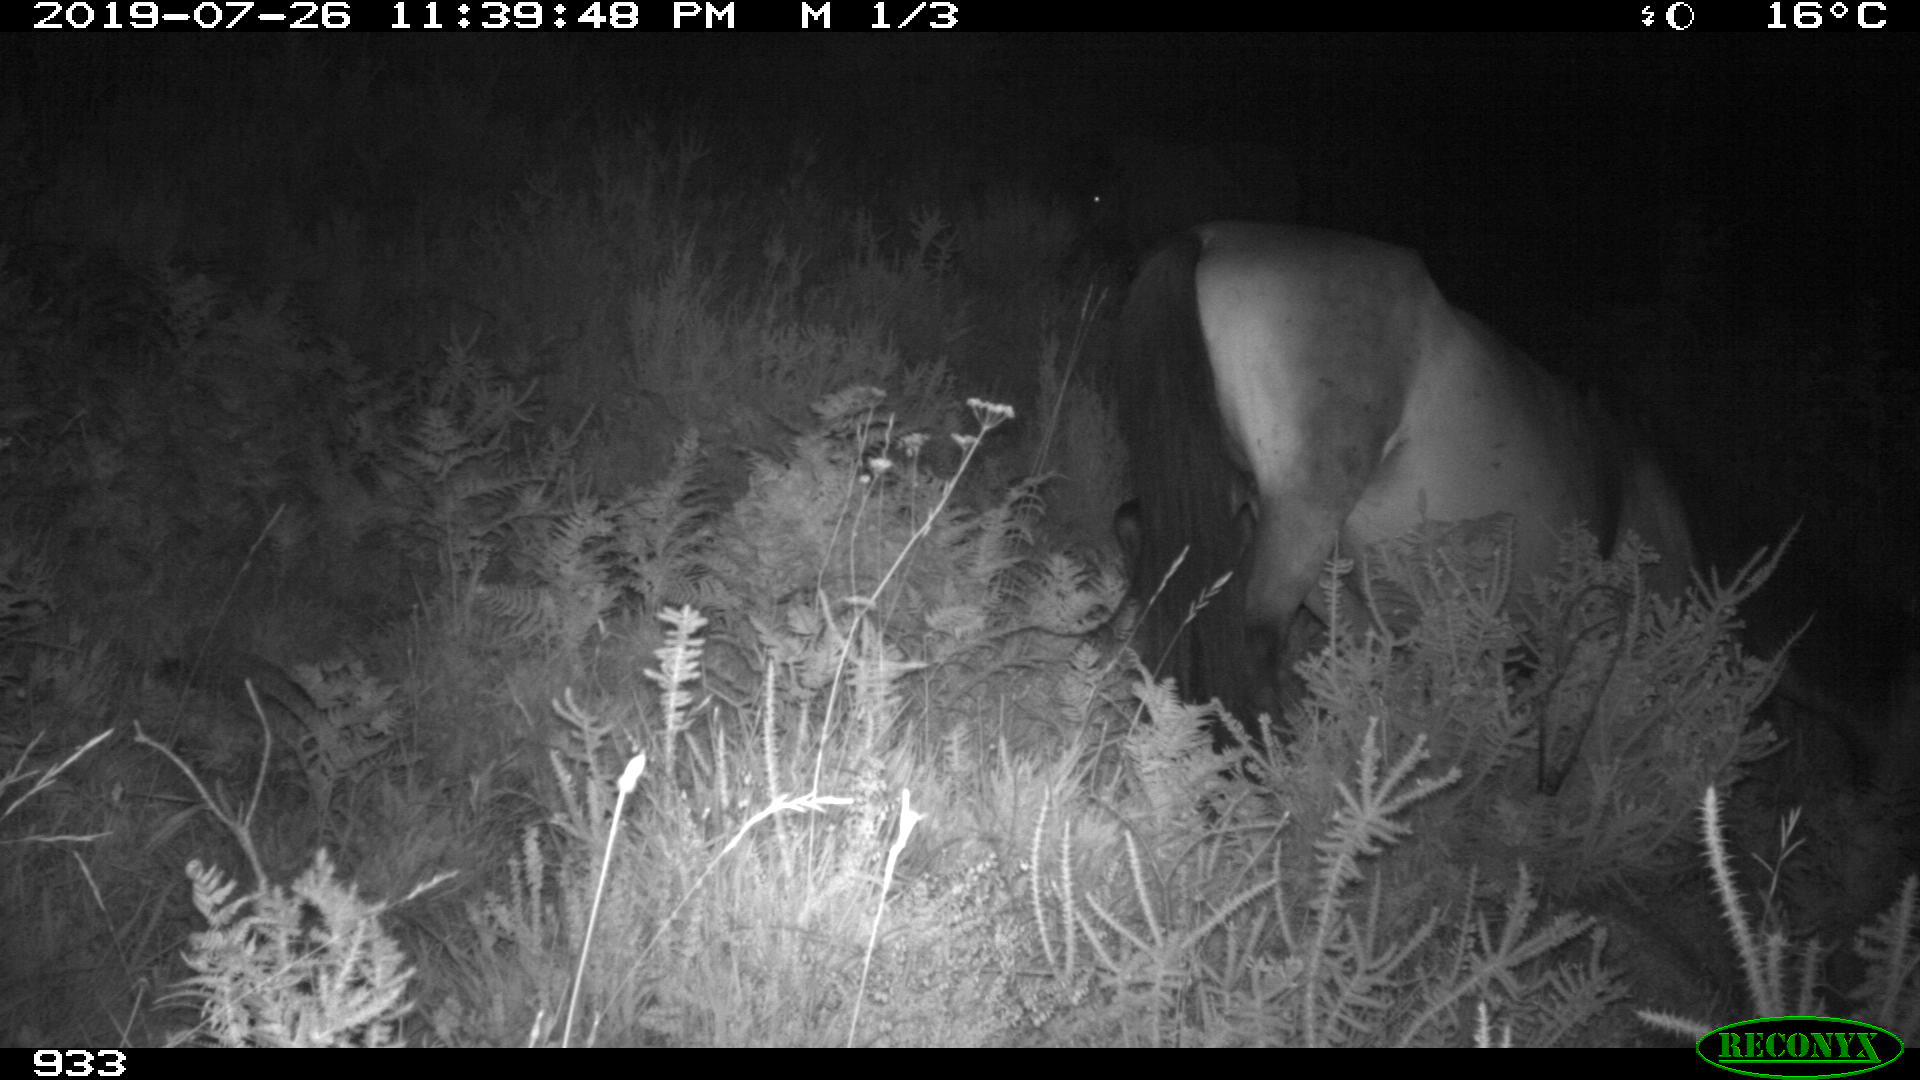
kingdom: Animalia
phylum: Chordata
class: Mammalia
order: Perissodactyla
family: Equidae
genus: Equus
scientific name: Equus caballus
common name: Horse
